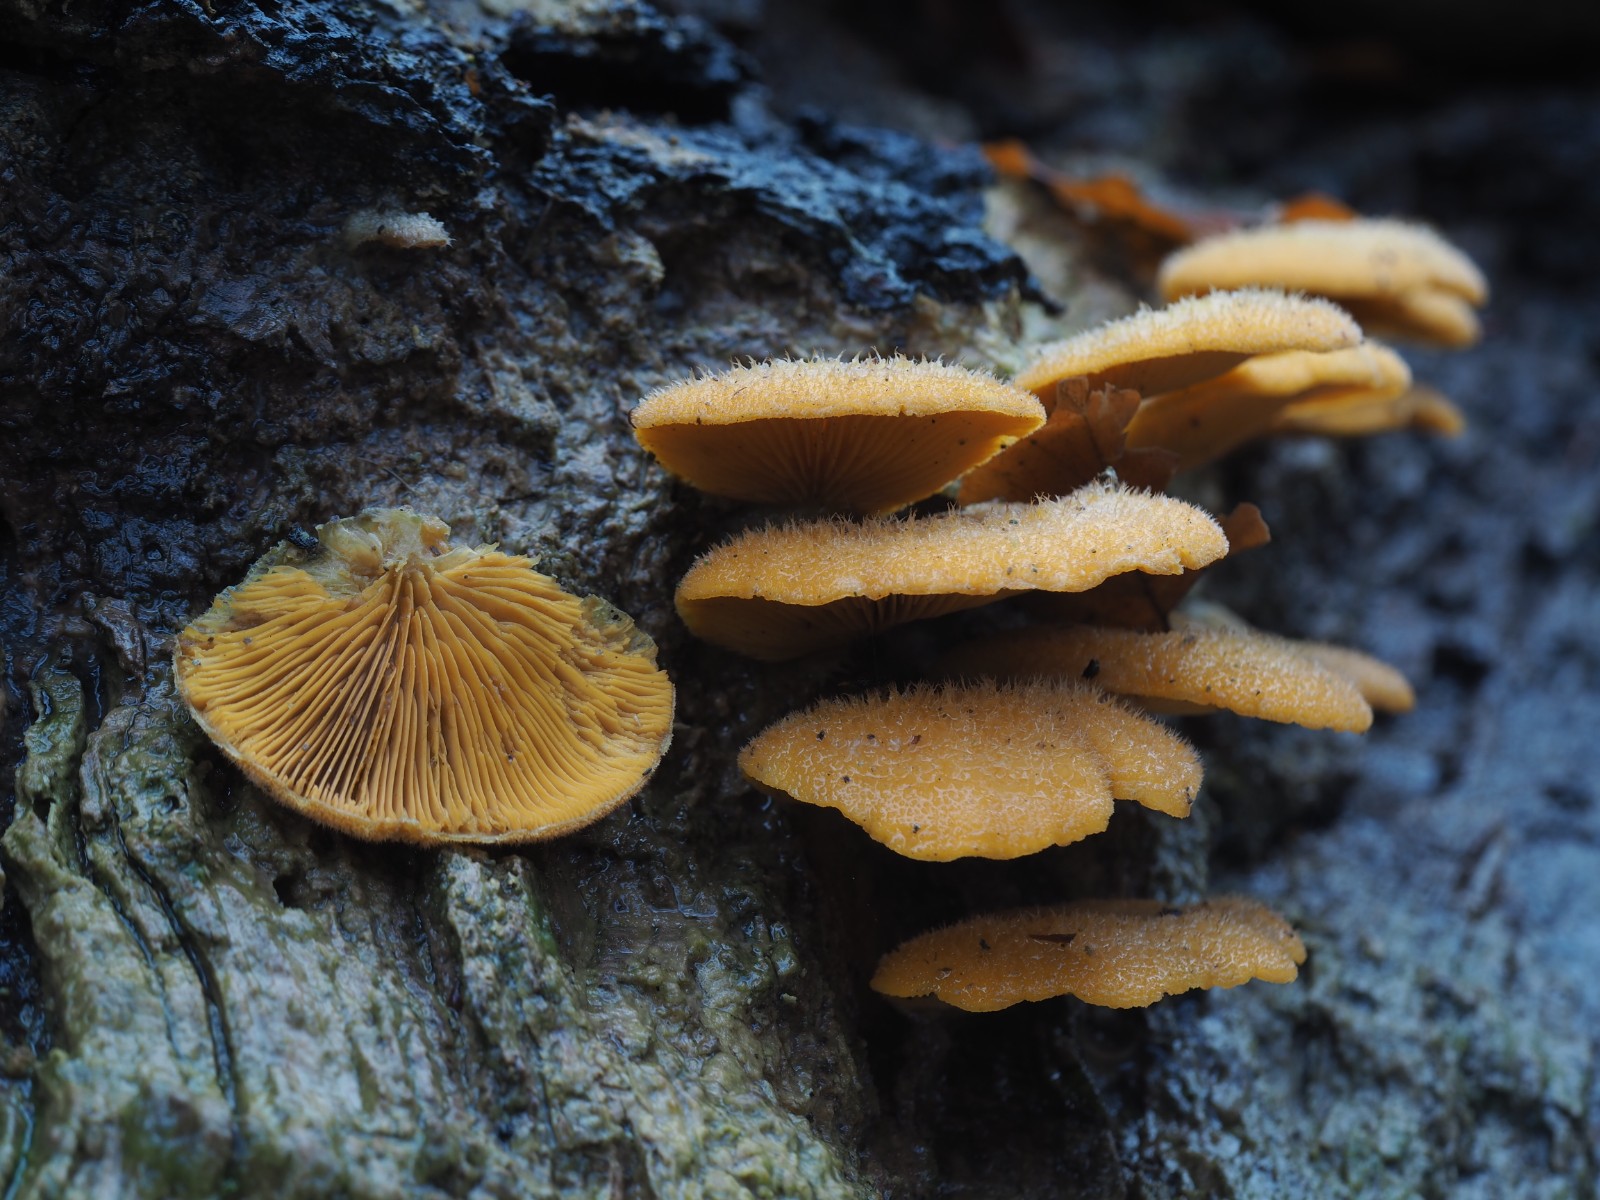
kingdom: Fungi
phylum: Basidiomycota
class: Agaricomycetes
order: Agaricales
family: Phyllotopsidaceae
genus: Phyllotopsis
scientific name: Phyllotopsis nidulans
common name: okkerblad
